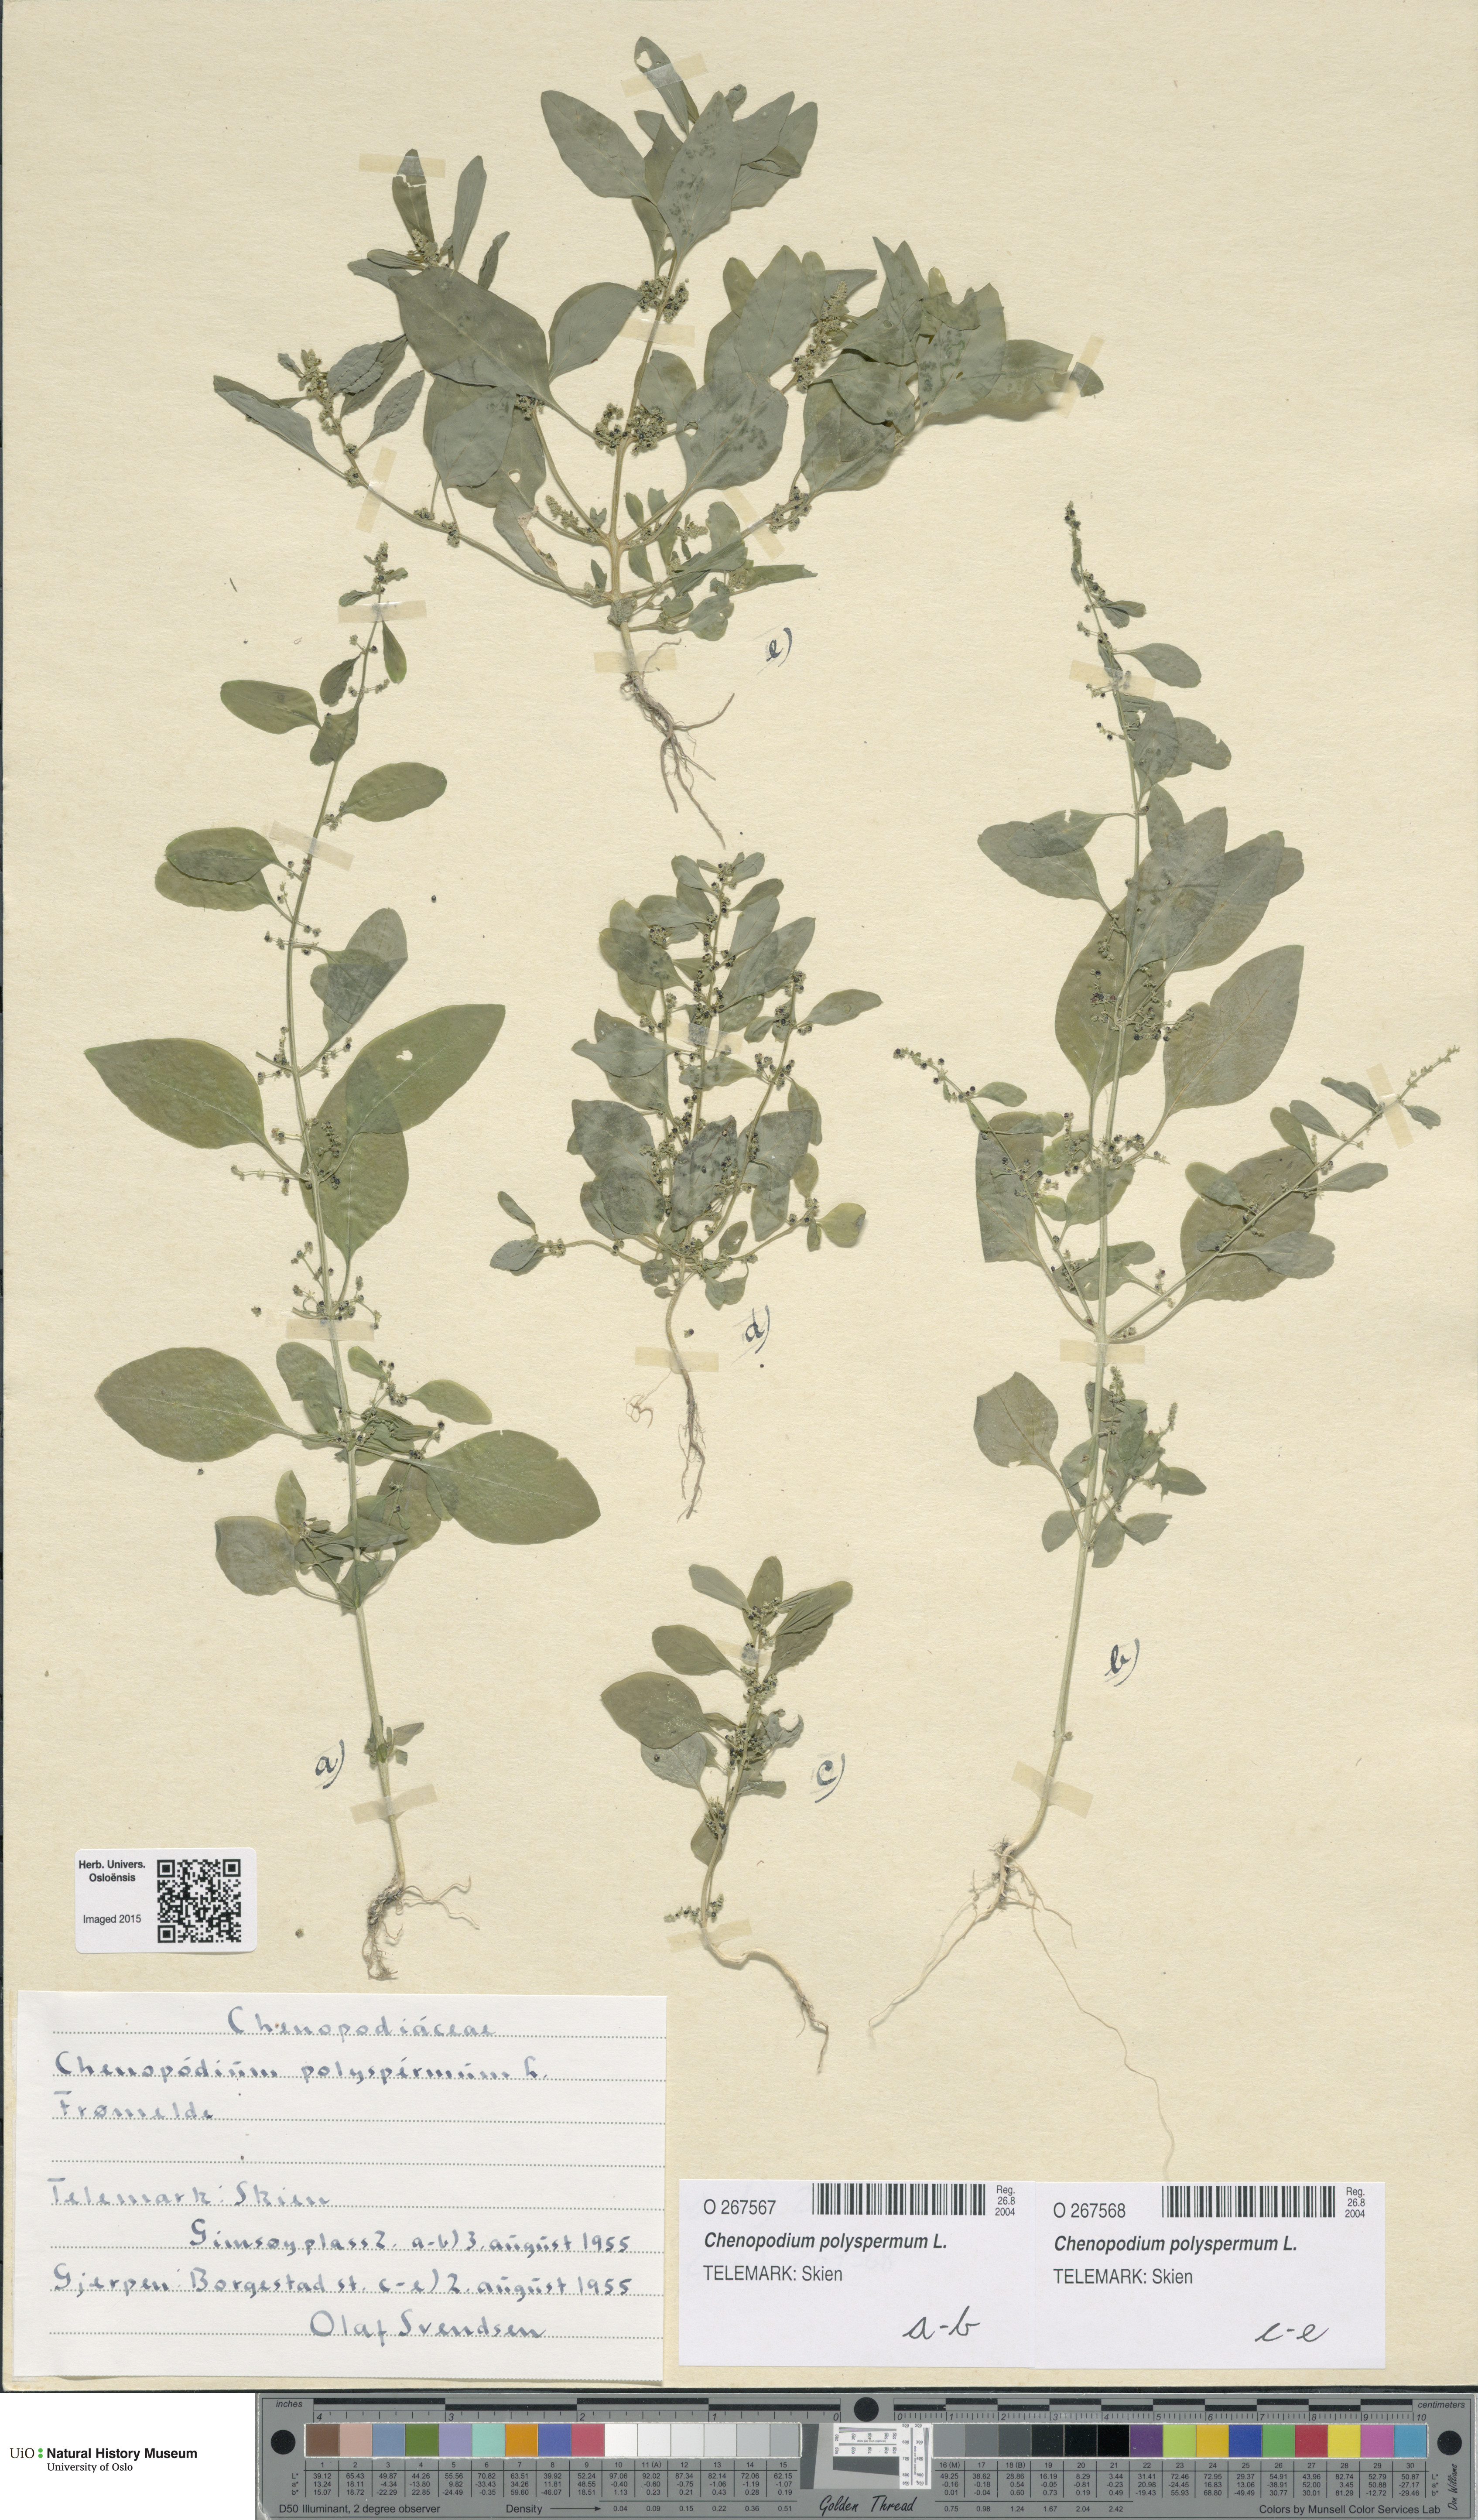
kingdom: Plantae
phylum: Tracheophyta
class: Magnoliopsida
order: Caryophyllales
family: Amaranthaceae
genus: Lipandra
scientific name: Lipandra polysperma
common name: Many-seed goosefoot
